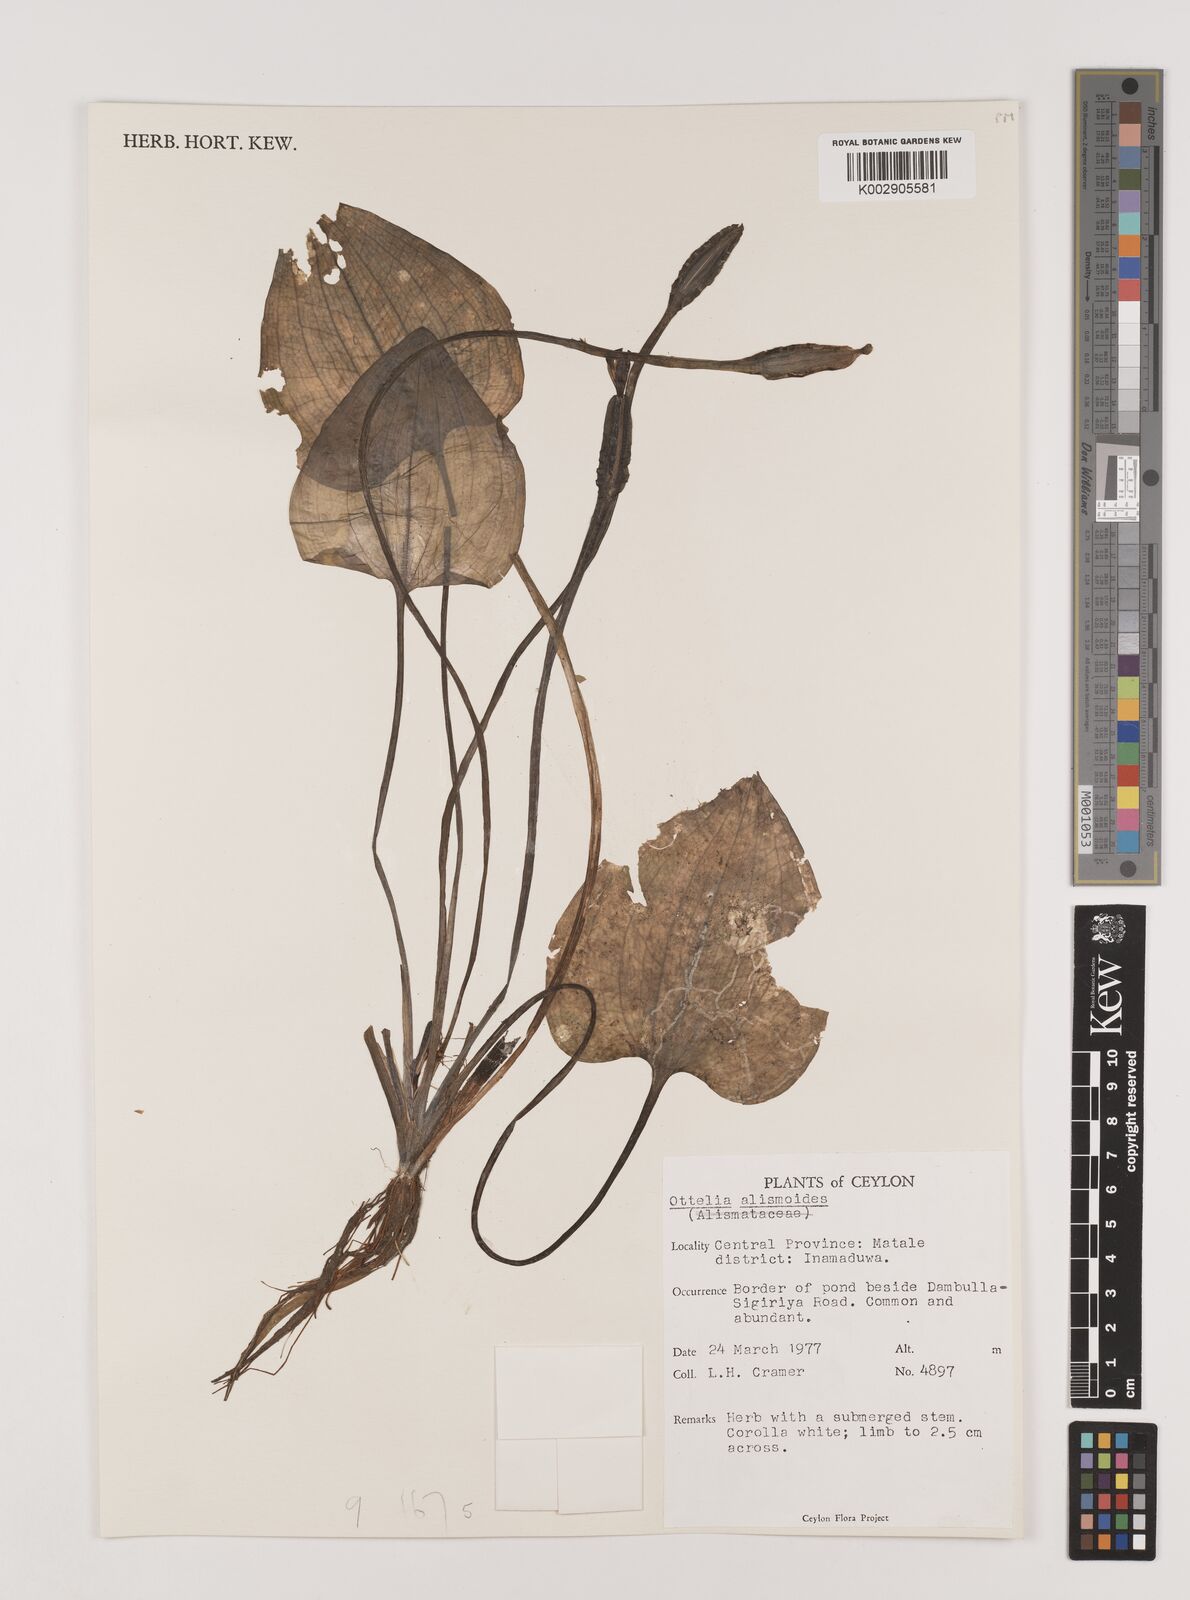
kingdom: Plantae
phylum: Tracheophyta
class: Liliopsida
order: Alismatales
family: Hydrocharitaceae
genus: Ottelia
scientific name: Ottelia alismoides
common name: Duck-lettuce
